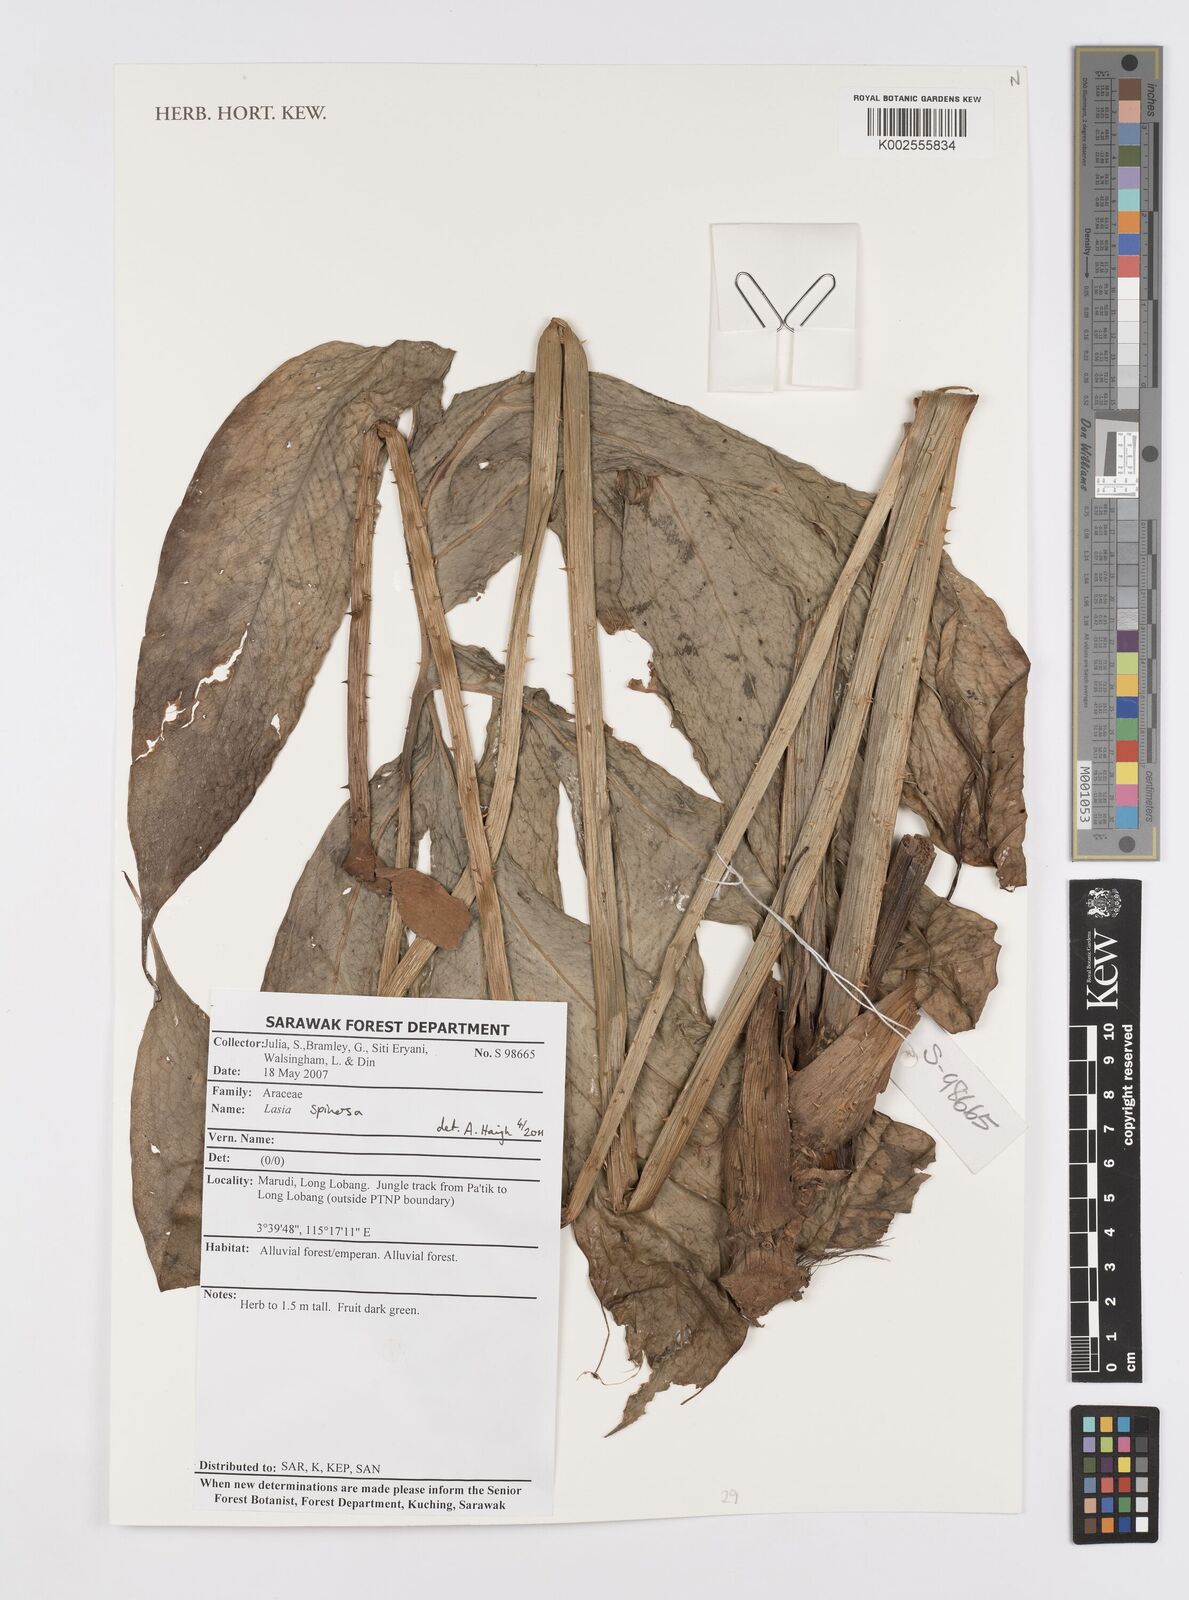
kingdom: Plantae
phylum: Tracheophyta
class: Liliopsida
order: Alismatales
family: Araceae
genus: Lasia
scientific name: Lasia spinosa
